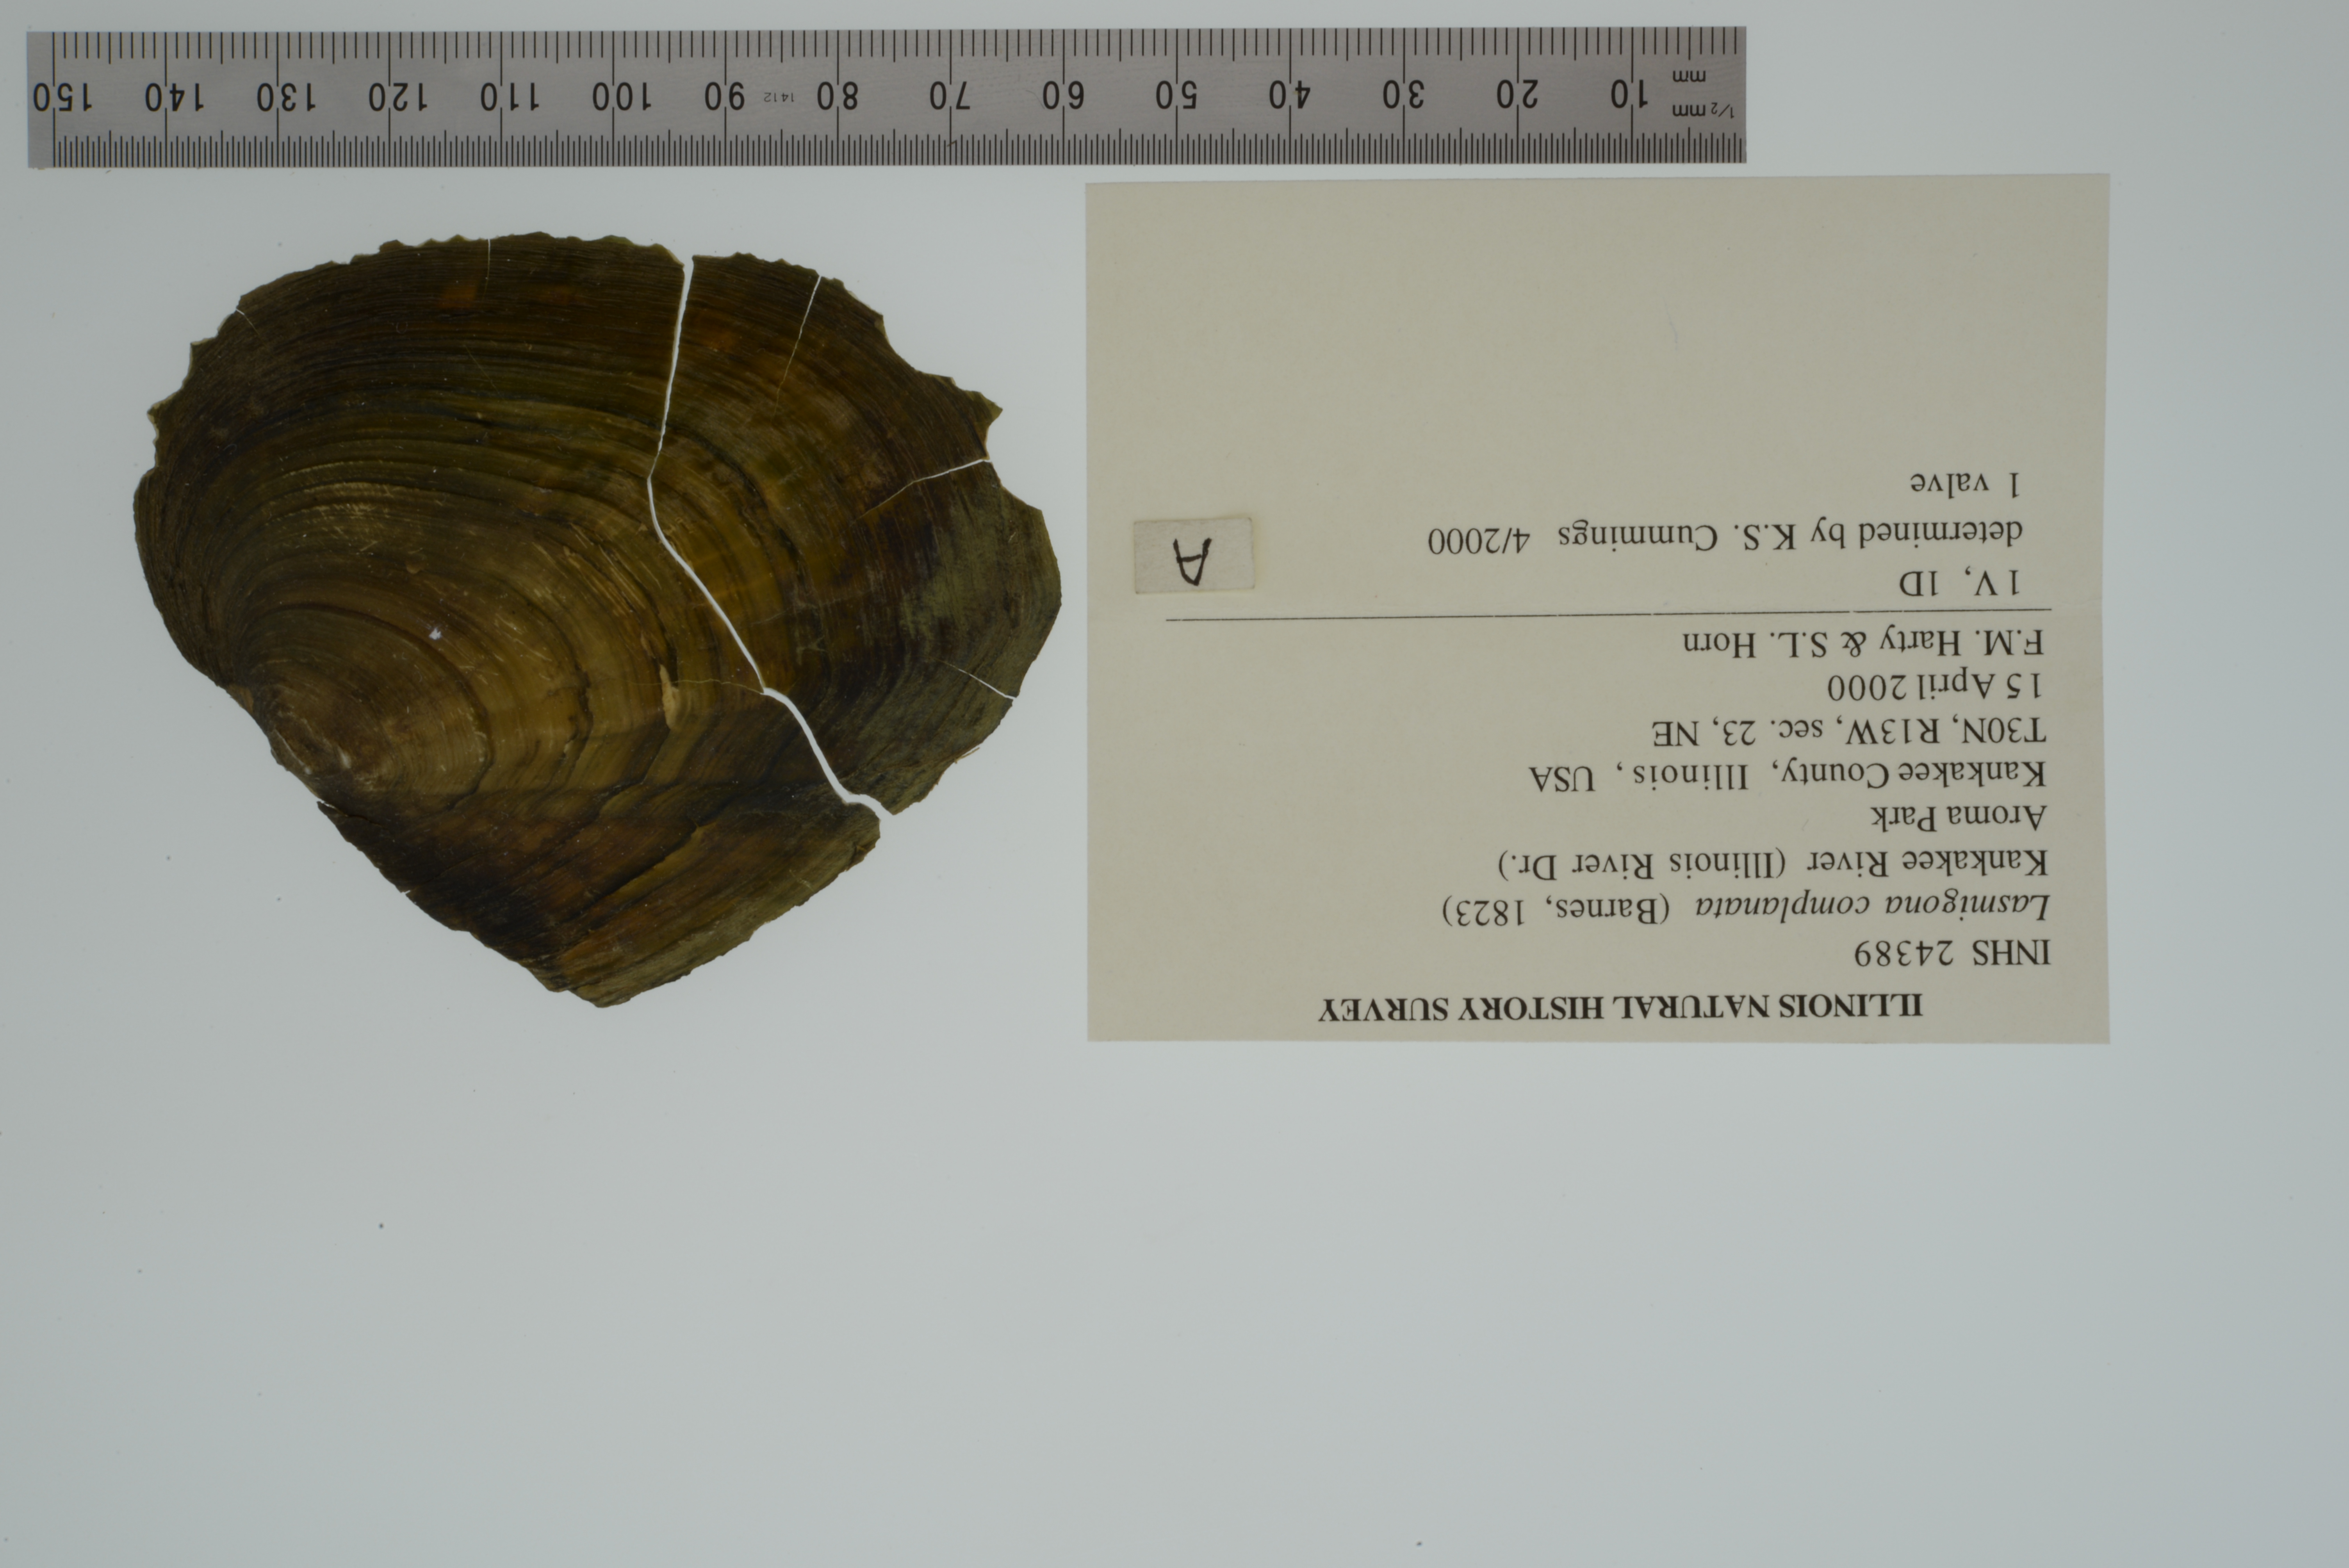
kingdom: Animalia
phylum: Mollusca
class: Bivalvia
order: Unionida
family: Unionidae
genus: Lasmigona
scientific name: Lasmigona complanata
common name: White heelsplitter
